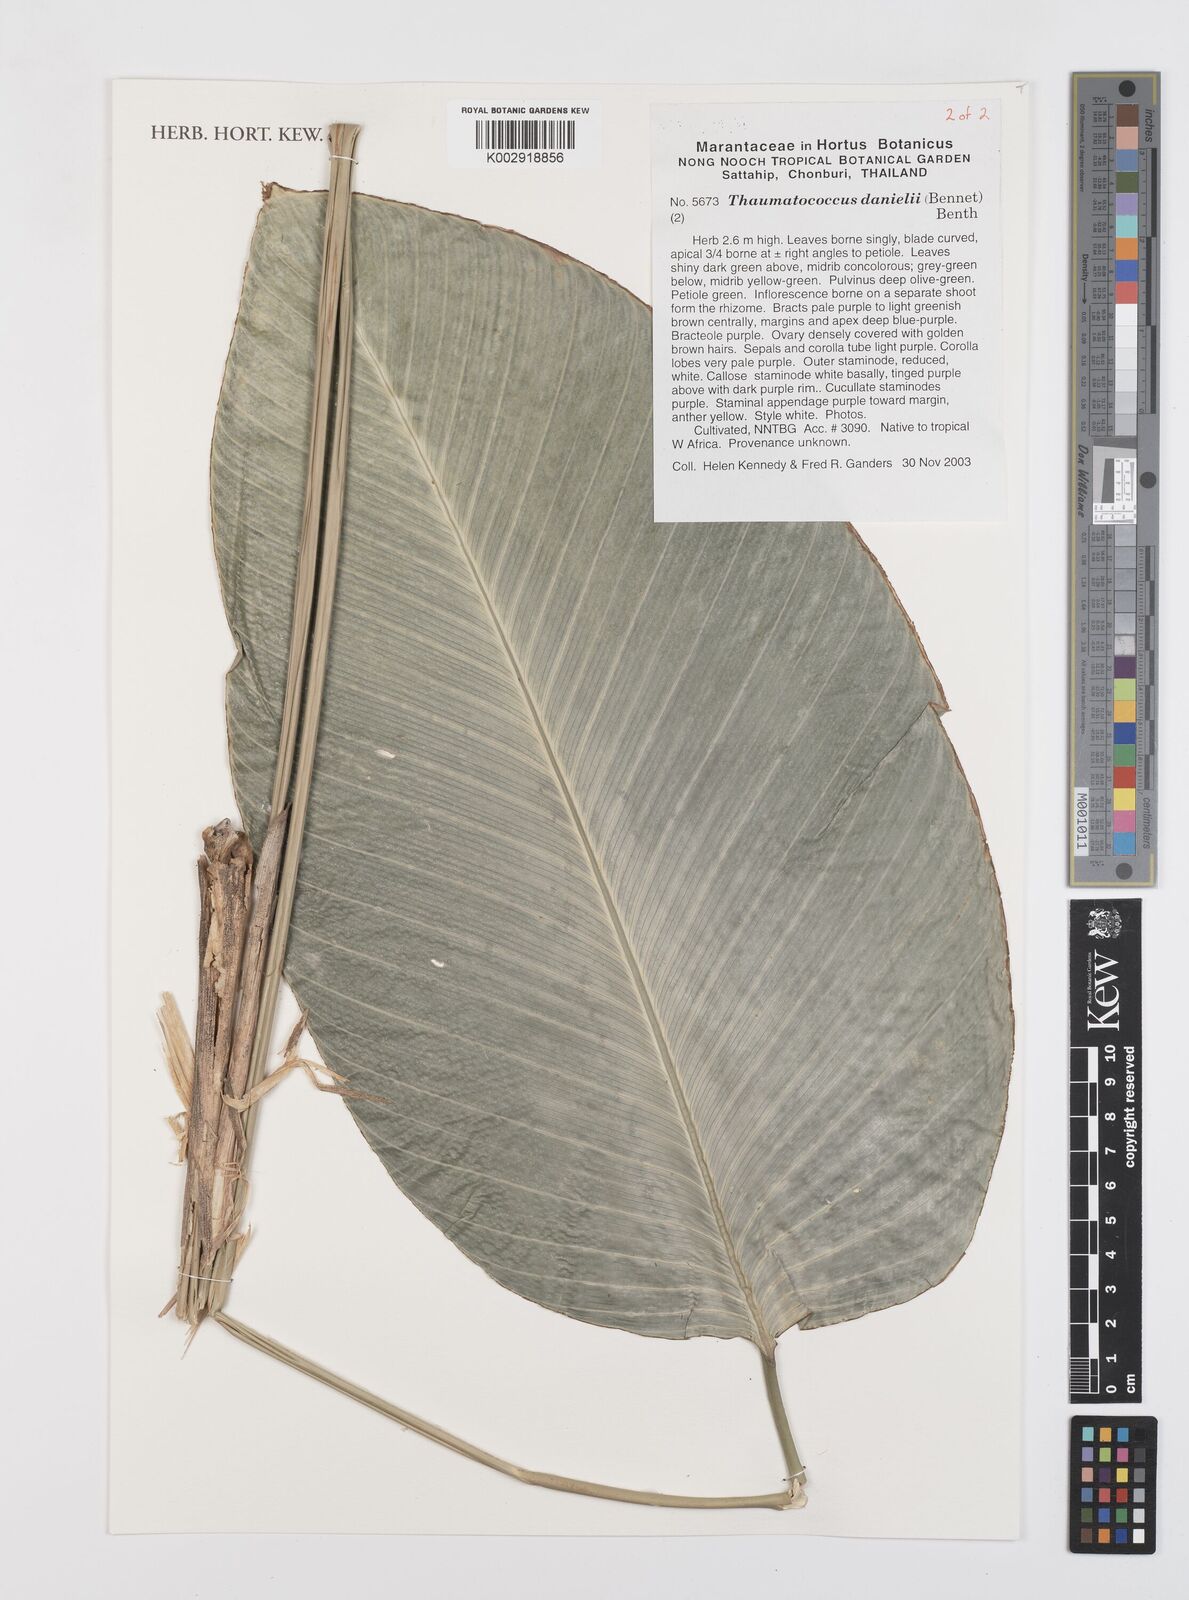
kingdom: Plantae
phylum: Tracheophyta
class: Liliopsida
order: Zingiberales
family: Marantaceae
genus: Thaumatococcus
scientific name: Thaumatococcus daniellii
